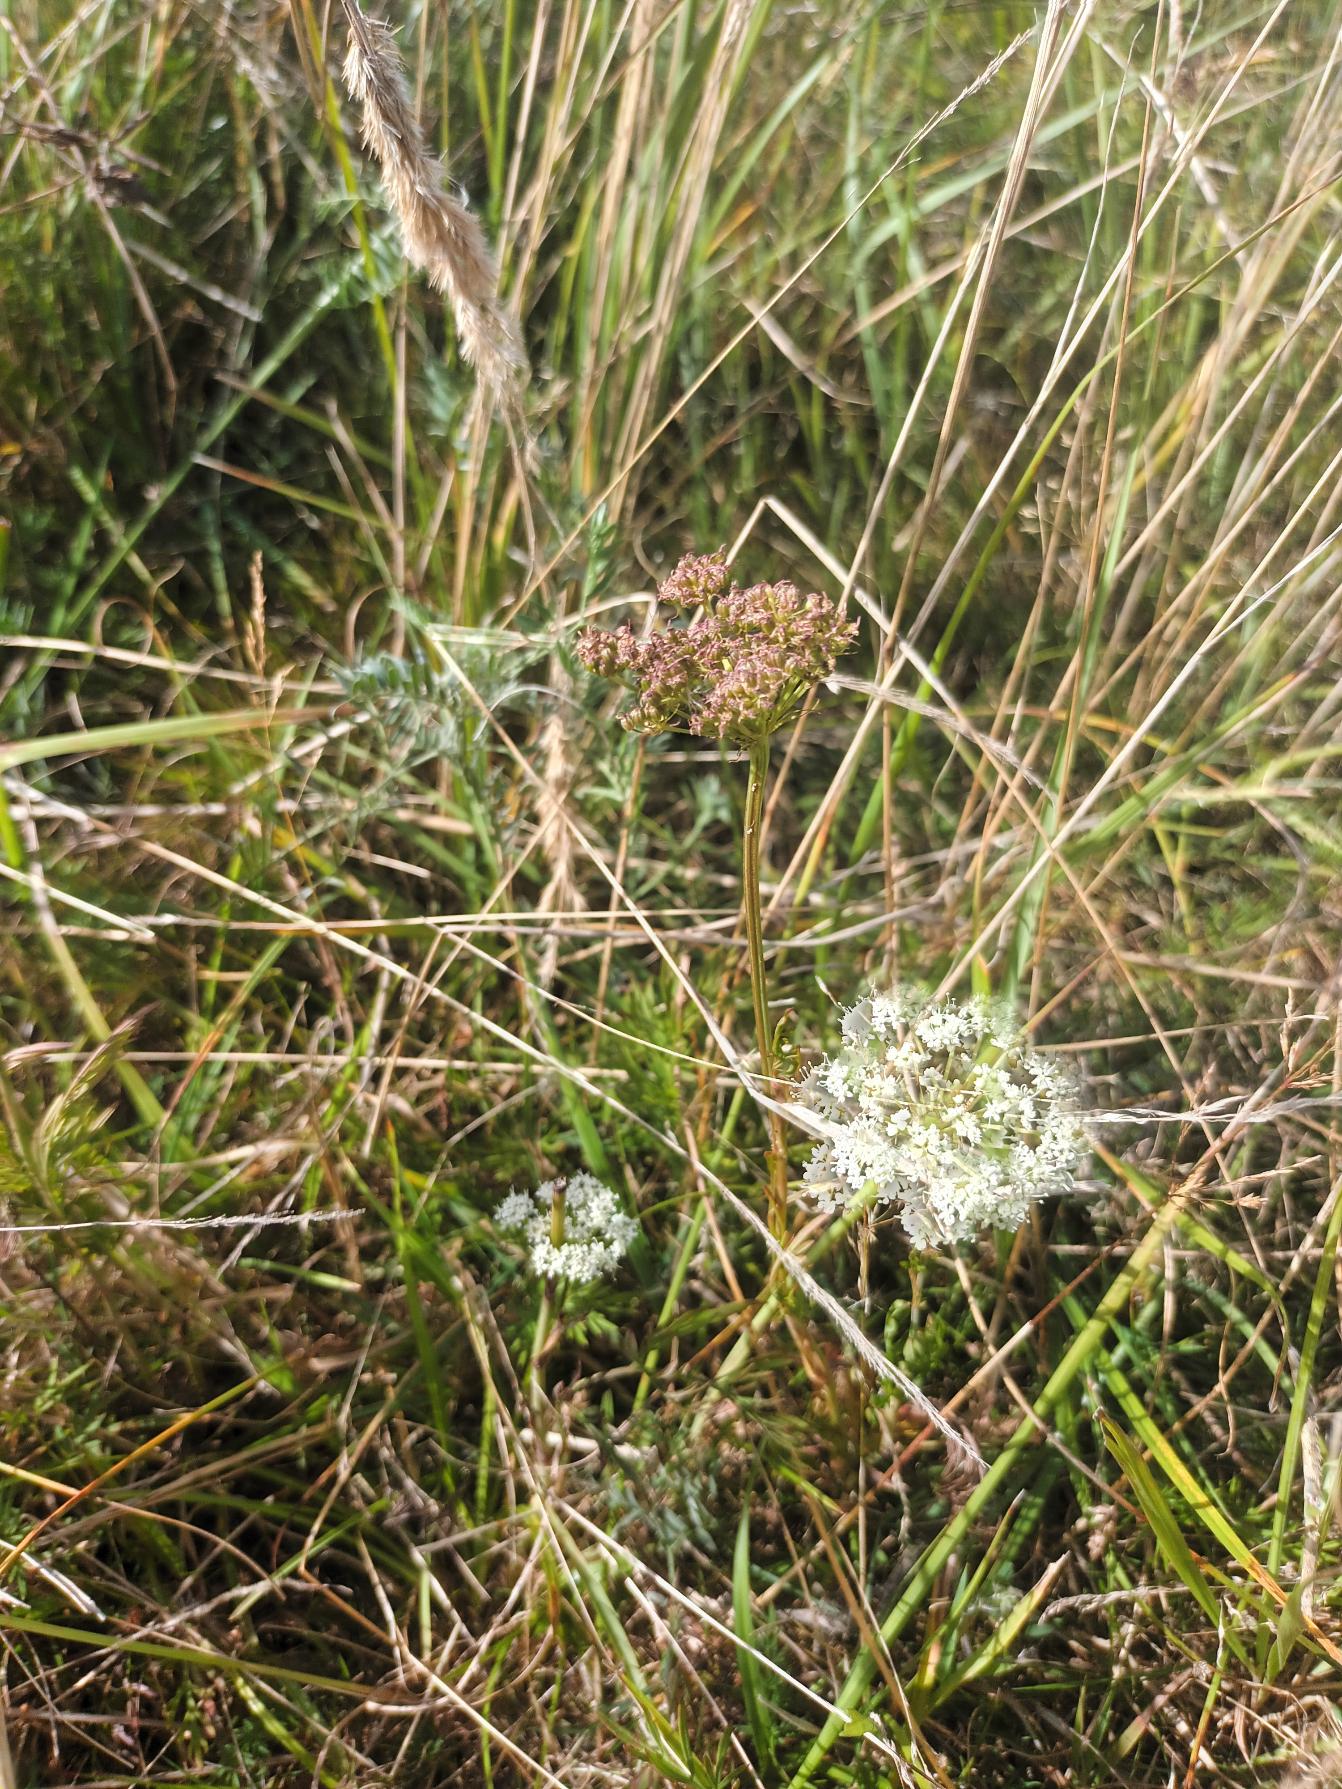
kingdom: Plantae
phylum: Tracheophyta
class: Magnoliopsida
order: Apiales
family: Apiaceae
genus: Kadenia
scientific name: Kadenia dubia
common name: Brændeskærm
